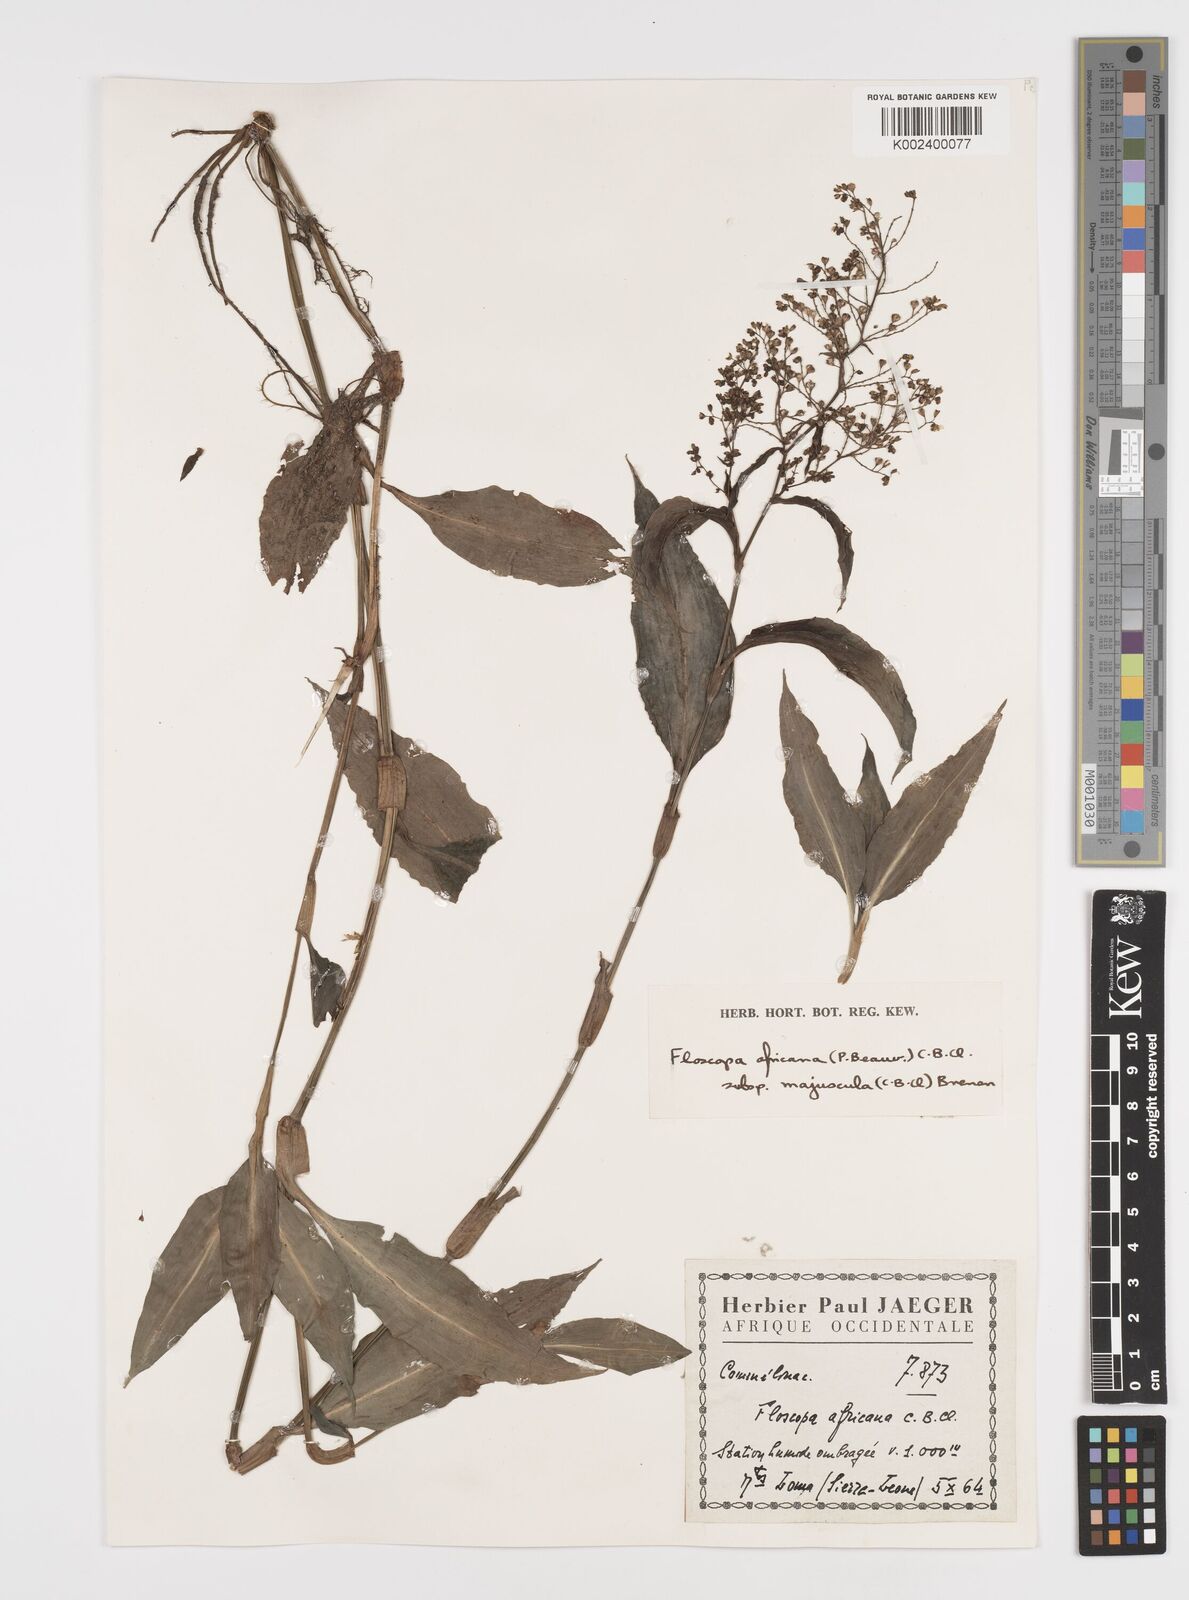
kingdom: Plantae
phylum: Tracheophyta
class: Liliopsida
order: Commelinales
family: Commelinaceae
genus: Floscopa
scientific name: Floscopa africana
